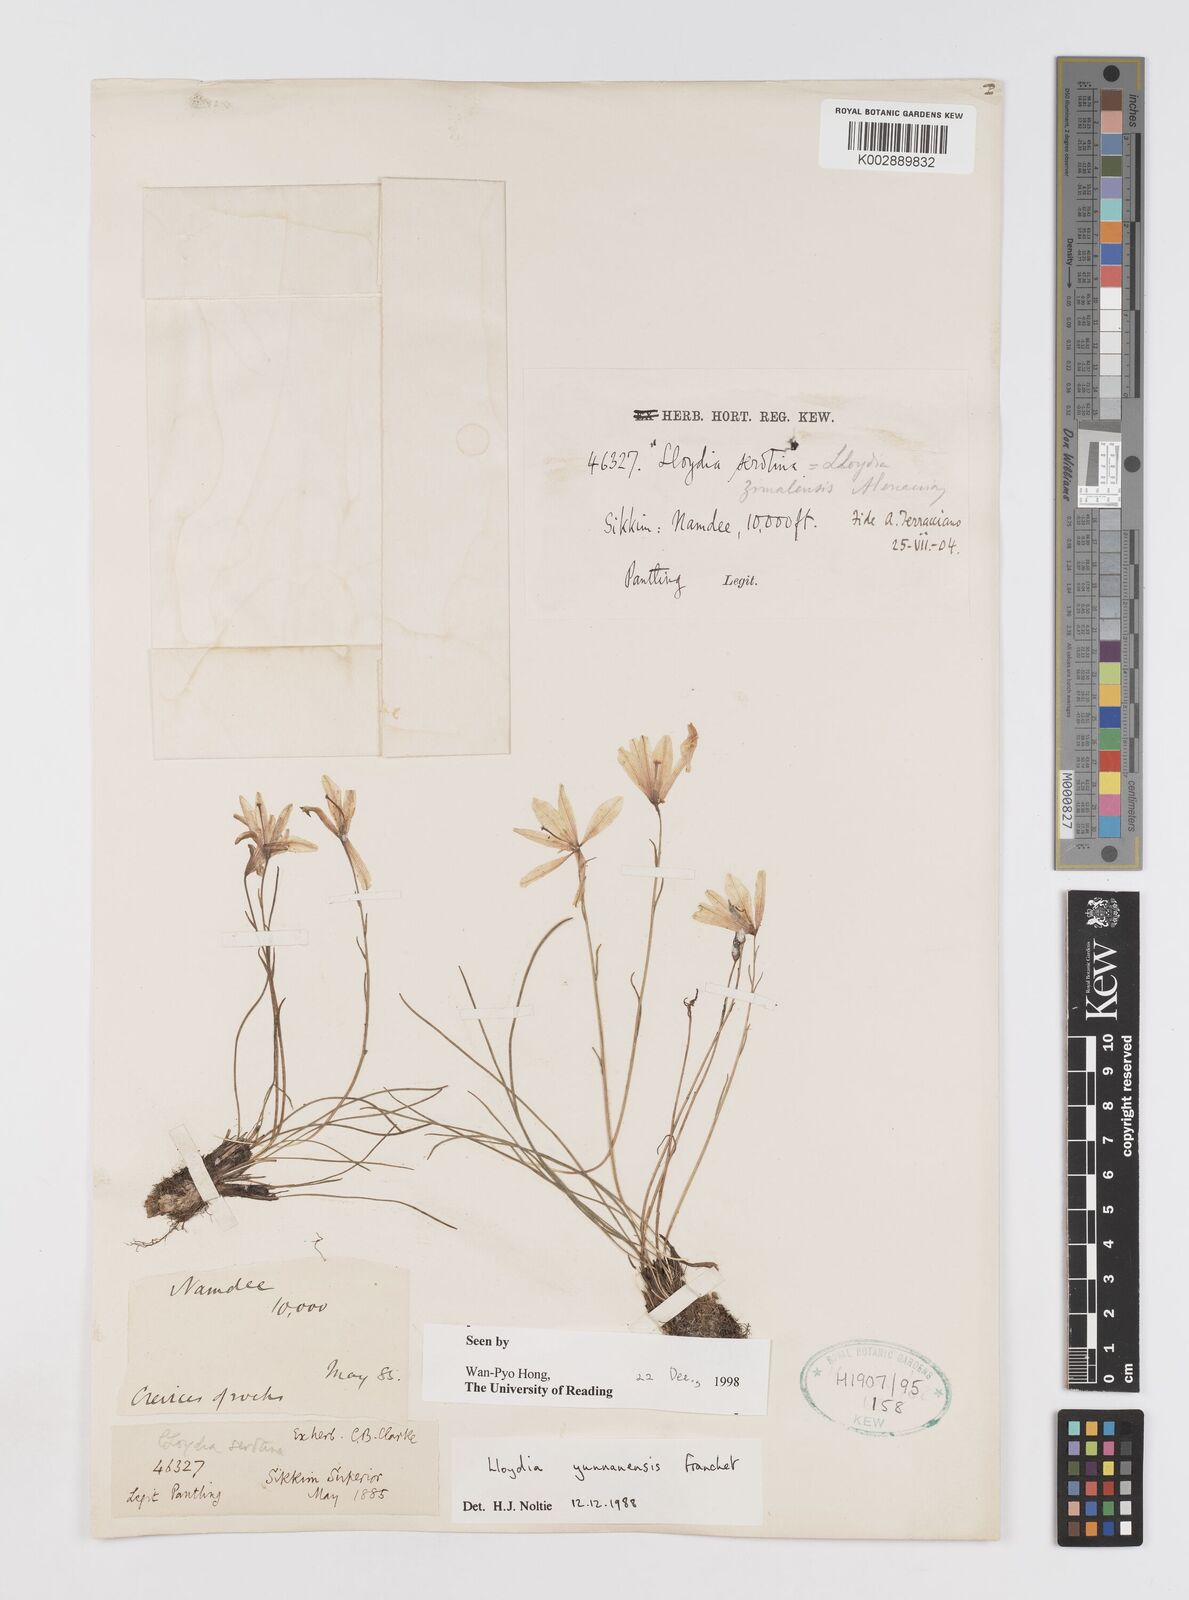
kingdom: Plantae
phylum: Tracheophyta
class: Liliopsida
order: Liliales
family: Liliaceae
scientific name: Liliaceae
